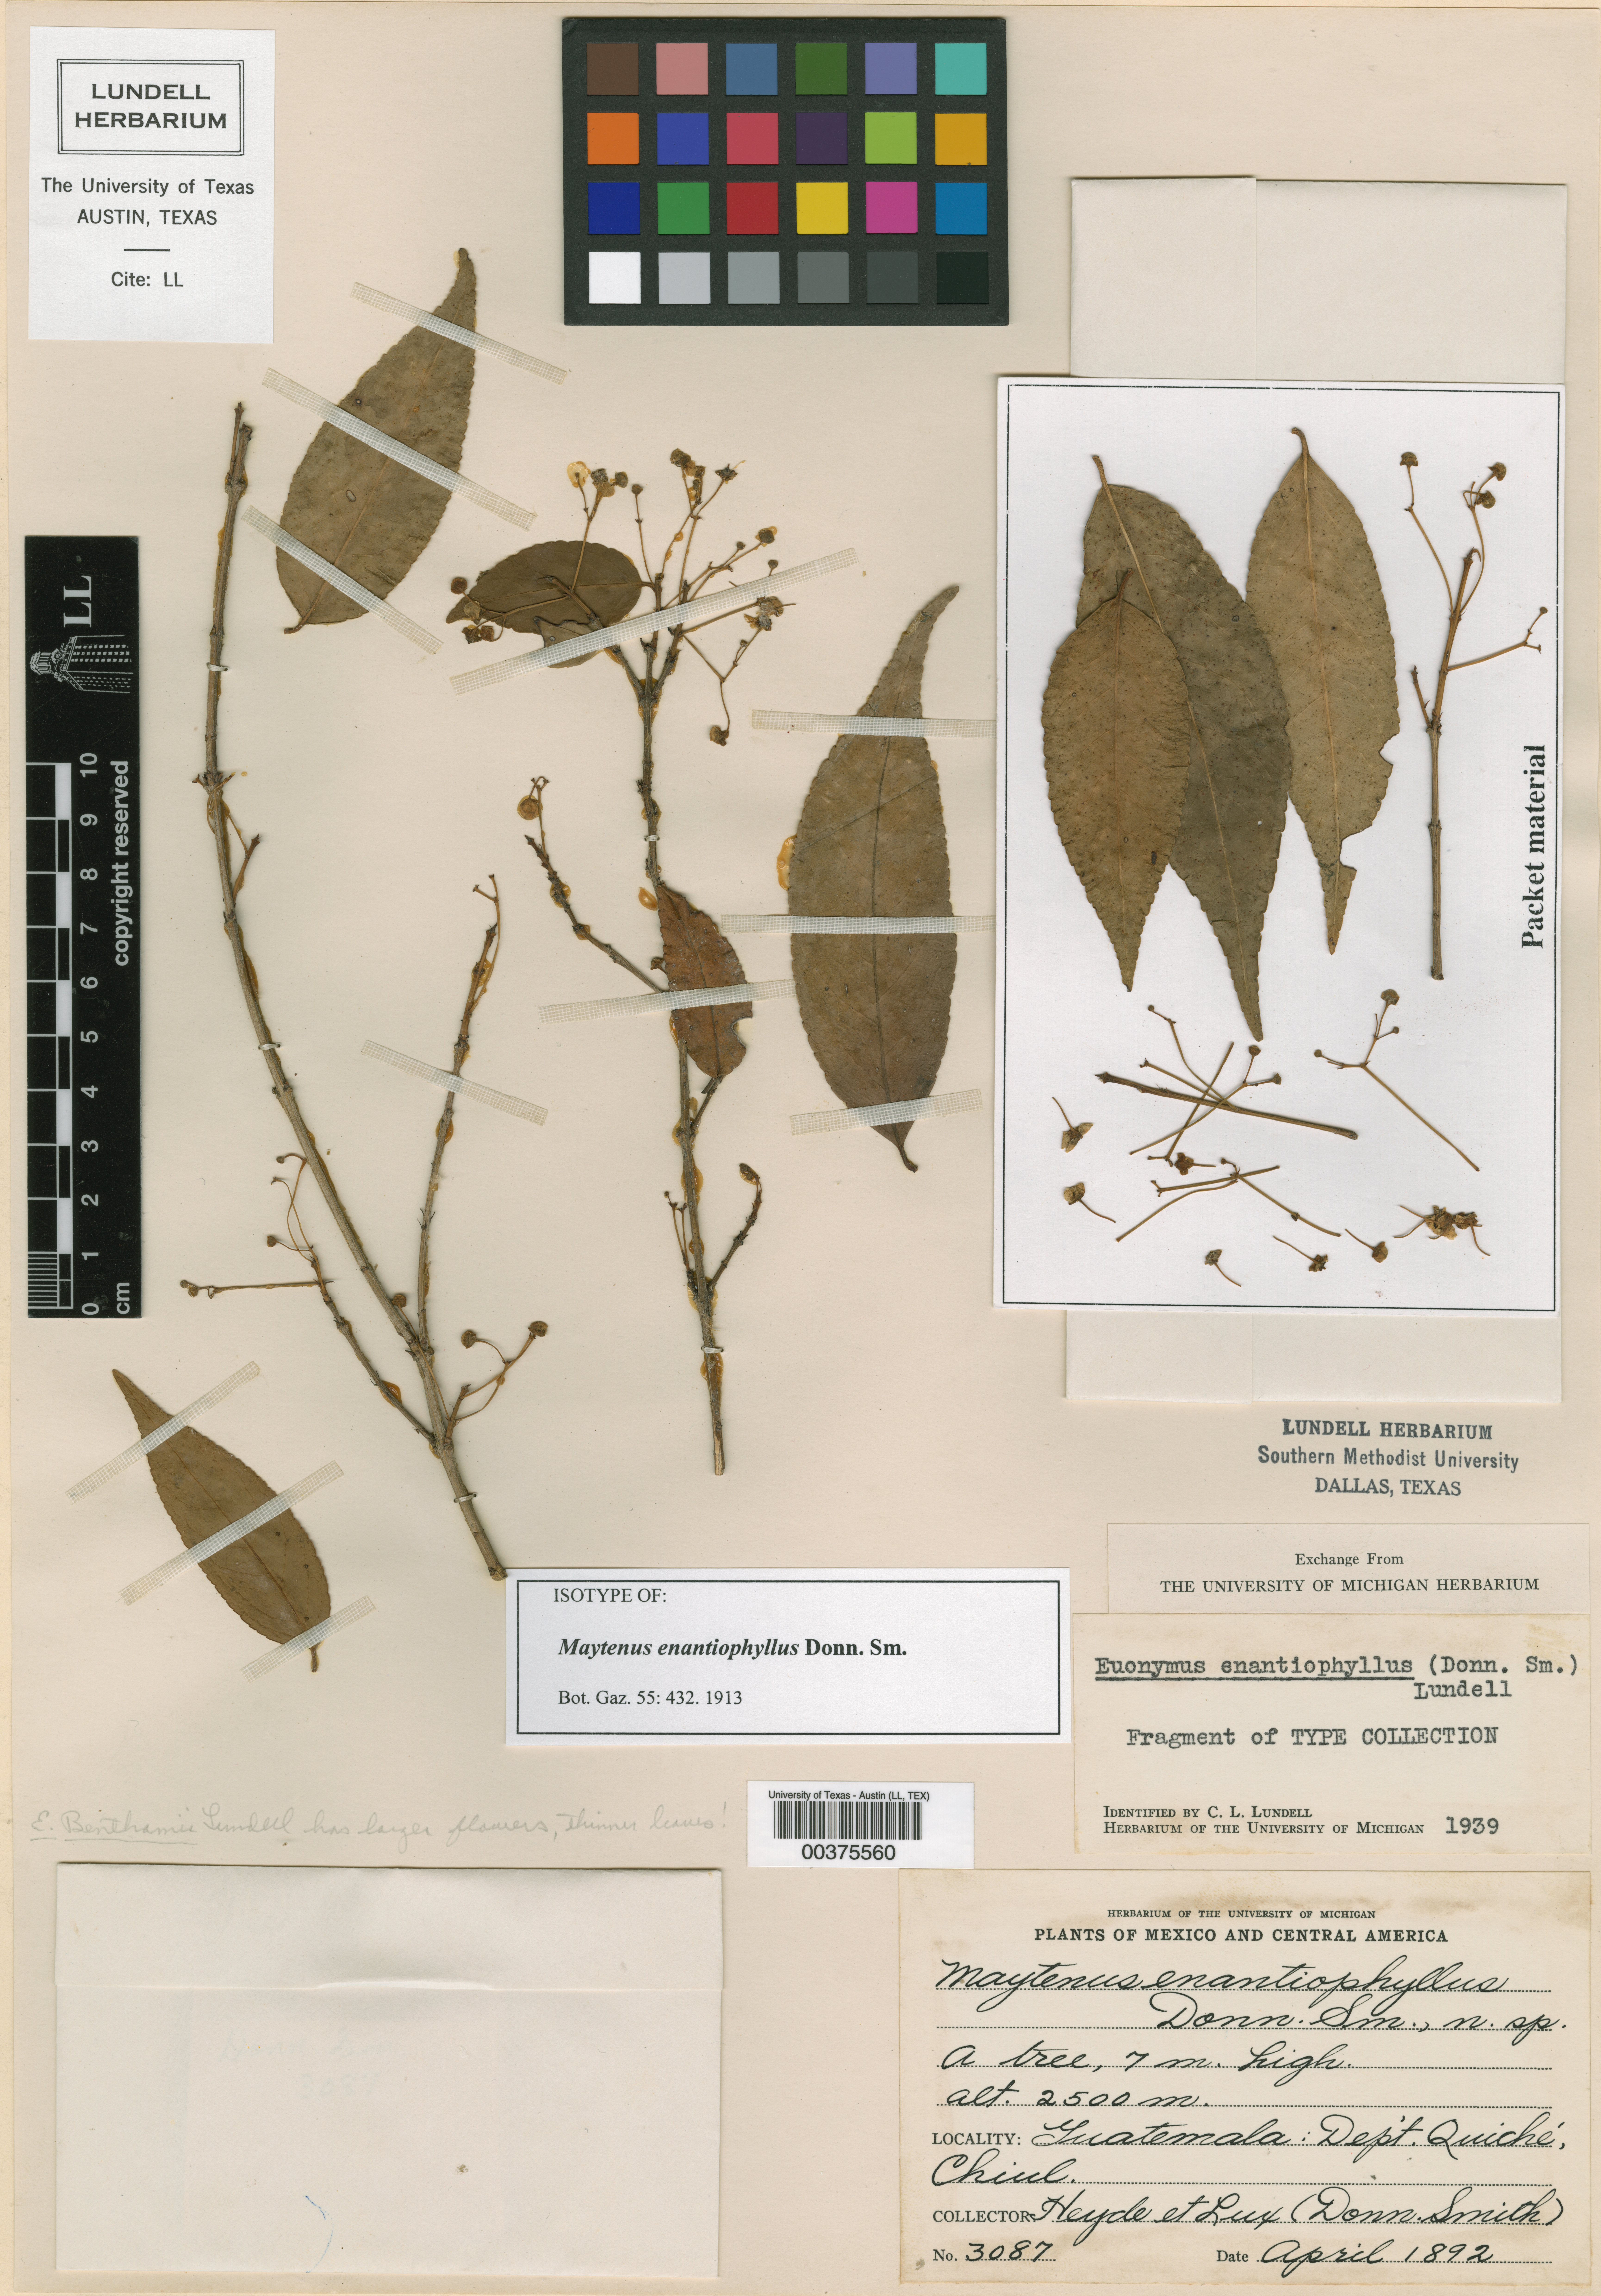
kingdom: Plantae
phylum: Tracheophyta
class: Magnoliopsida
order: Celastrales
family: Celastraceae
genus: Euonymus
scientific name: Euonymus enantiophyllus
